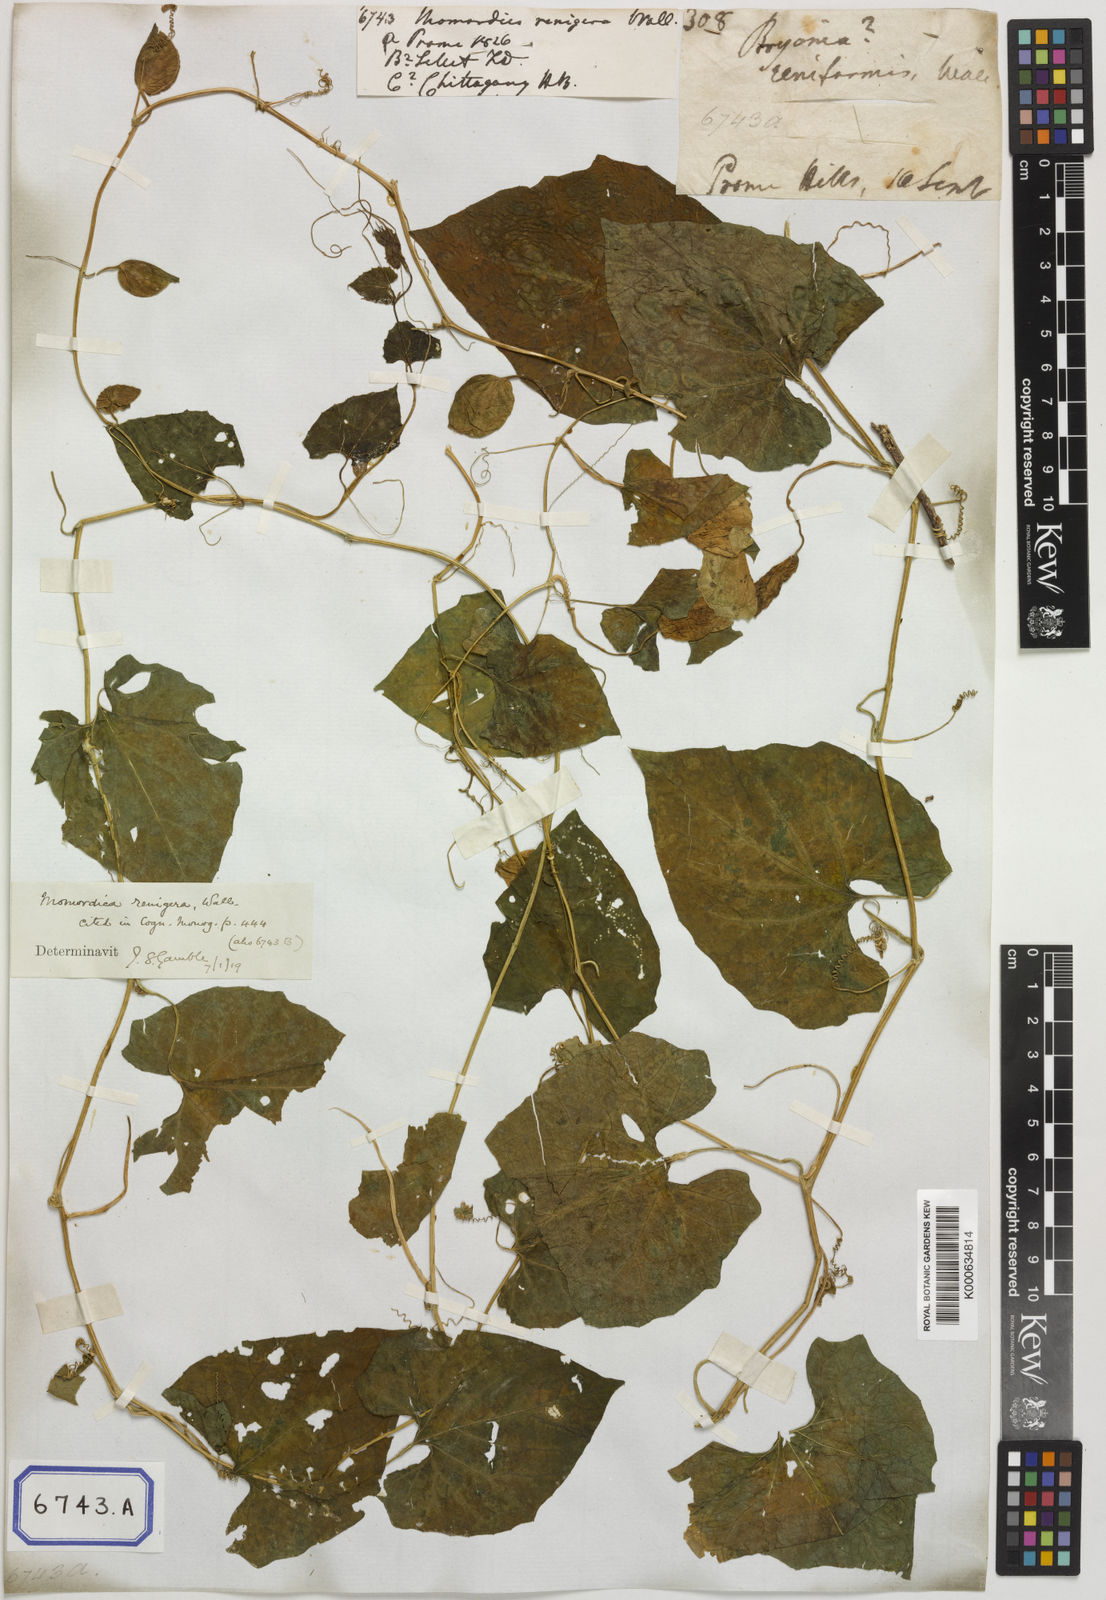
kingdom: Plantae
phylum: Tracheophyta
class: Magnoliopsida
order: Cucurbitales
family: Cucurbitaceae
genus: Momordica
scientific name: Momordica subangulata
